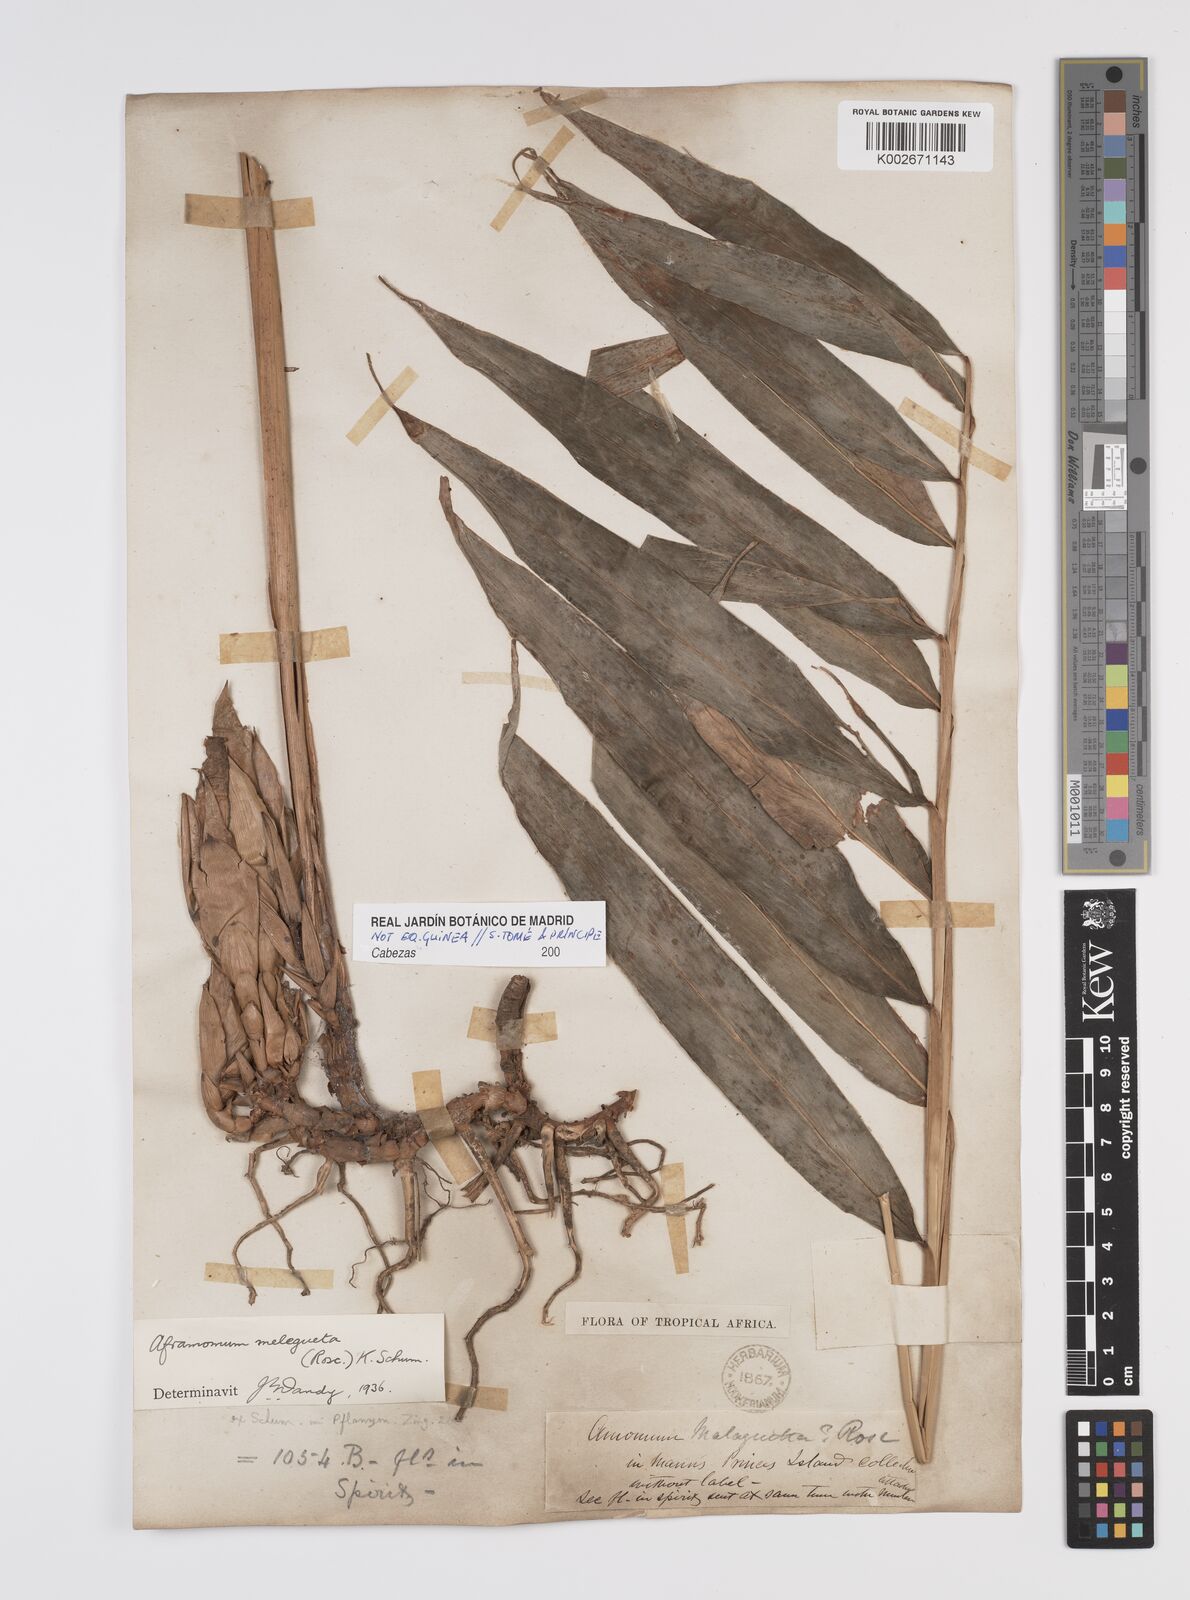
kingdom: Plantae
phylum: Tracheophyta
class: Liliopsida
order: Zingiberales
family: Zingiberaceae
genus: Aframomum
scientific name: Aframomum melegueta
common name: Grains of paradise
